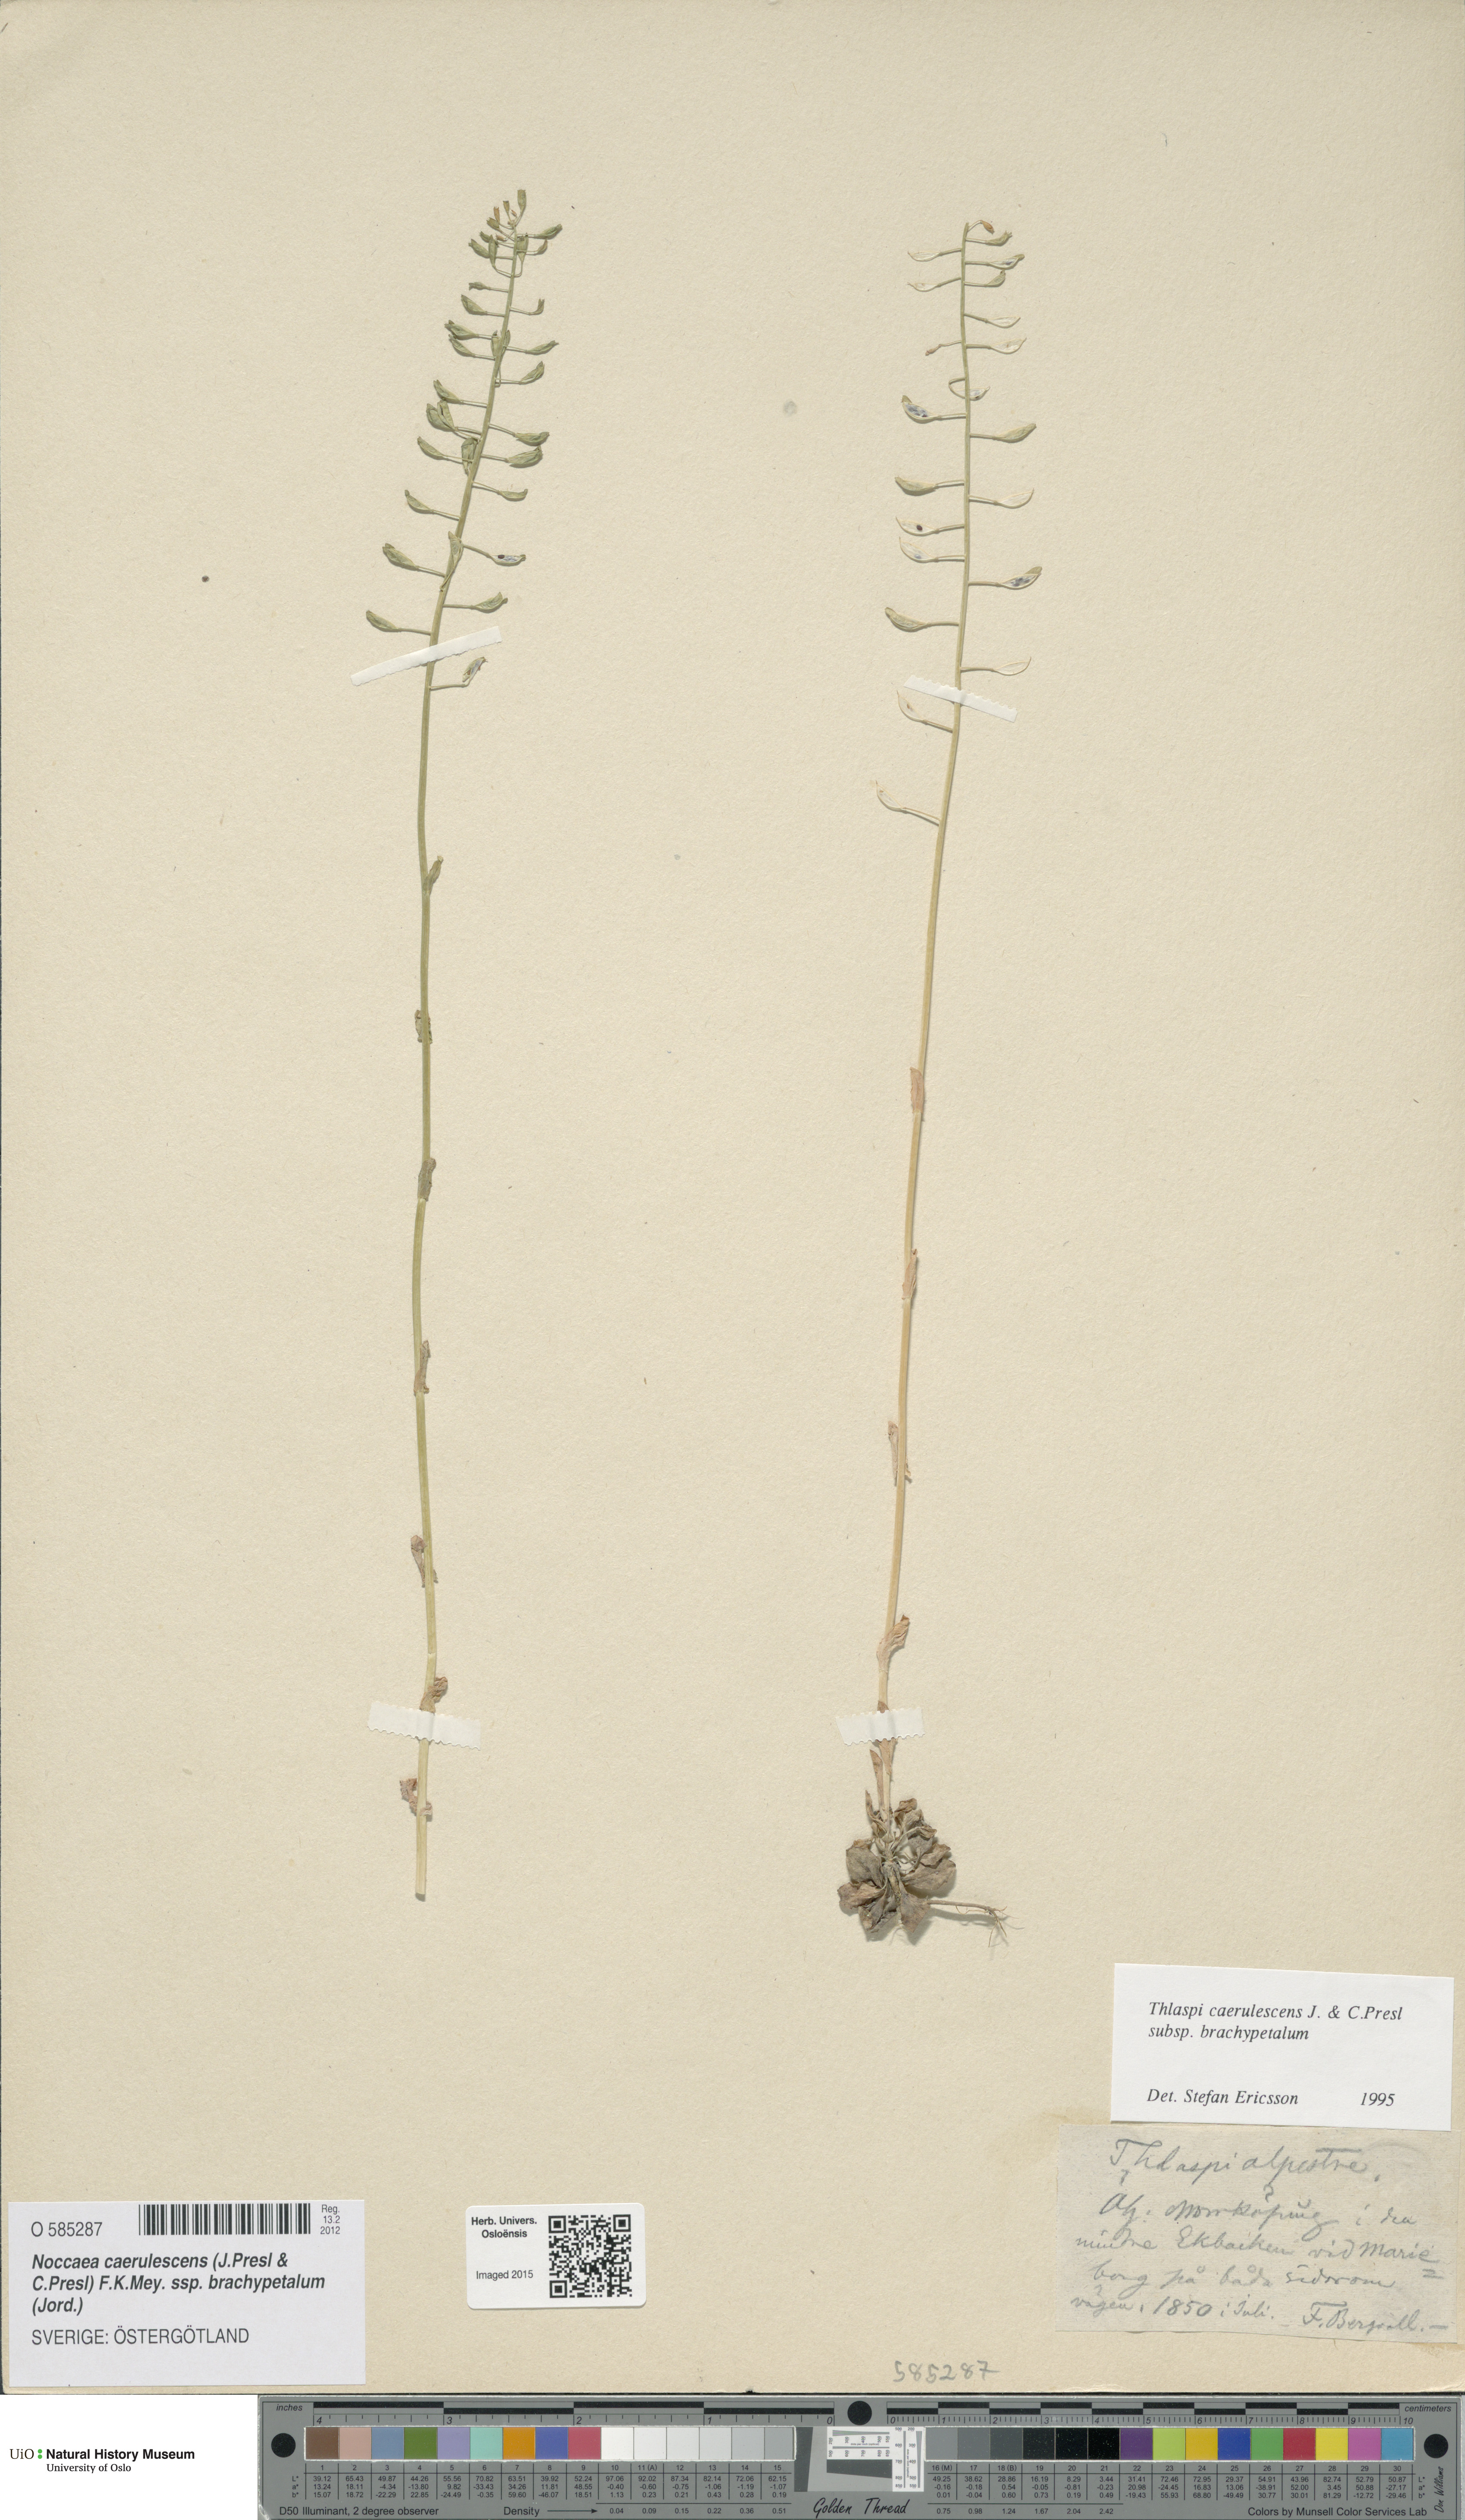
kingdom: Plantae
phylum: Tracheophyta
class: Magnoliopsida
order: Brassicales
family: Brassicaceae
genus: Noccaea
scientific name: Noccaea brachypetala
